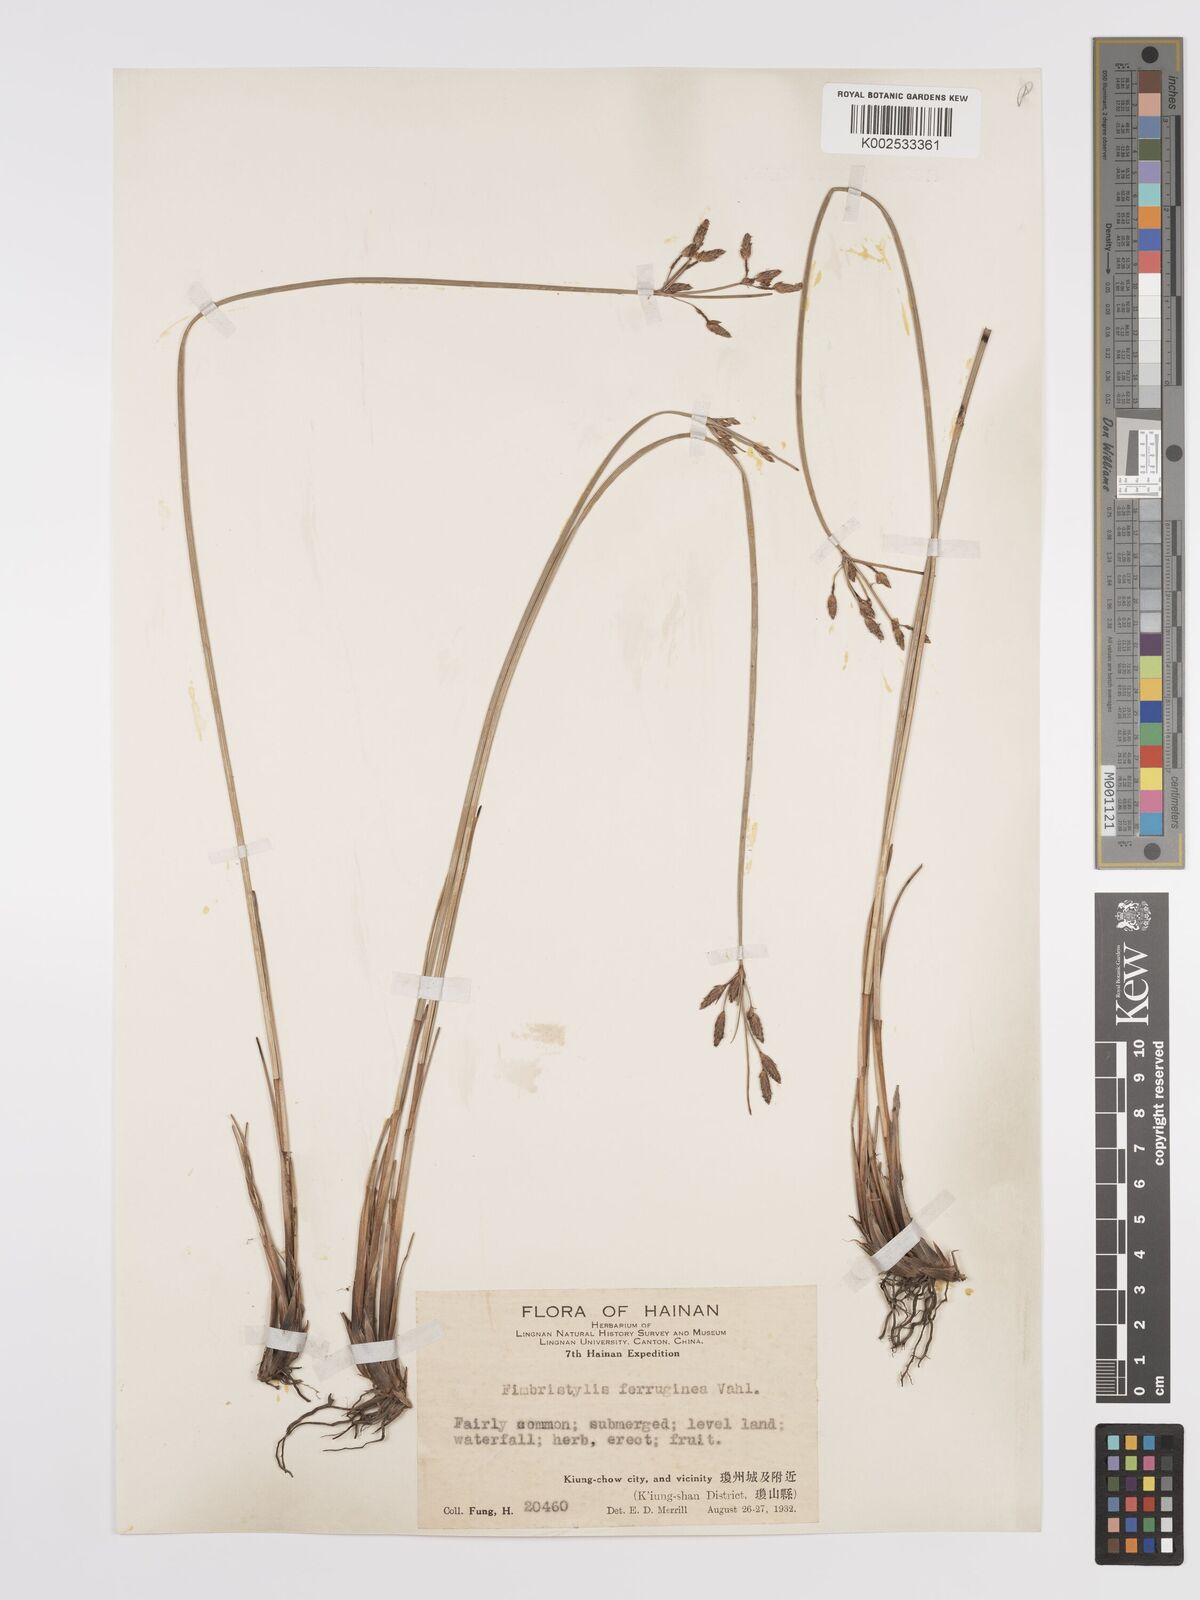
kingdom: Plantae
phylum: Tracheophyta
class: Liliopsida
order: Poales
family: Cyperaceae
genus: Fimbristylis
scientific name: Fimbristylis ferruginea
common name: West indian fimbry
